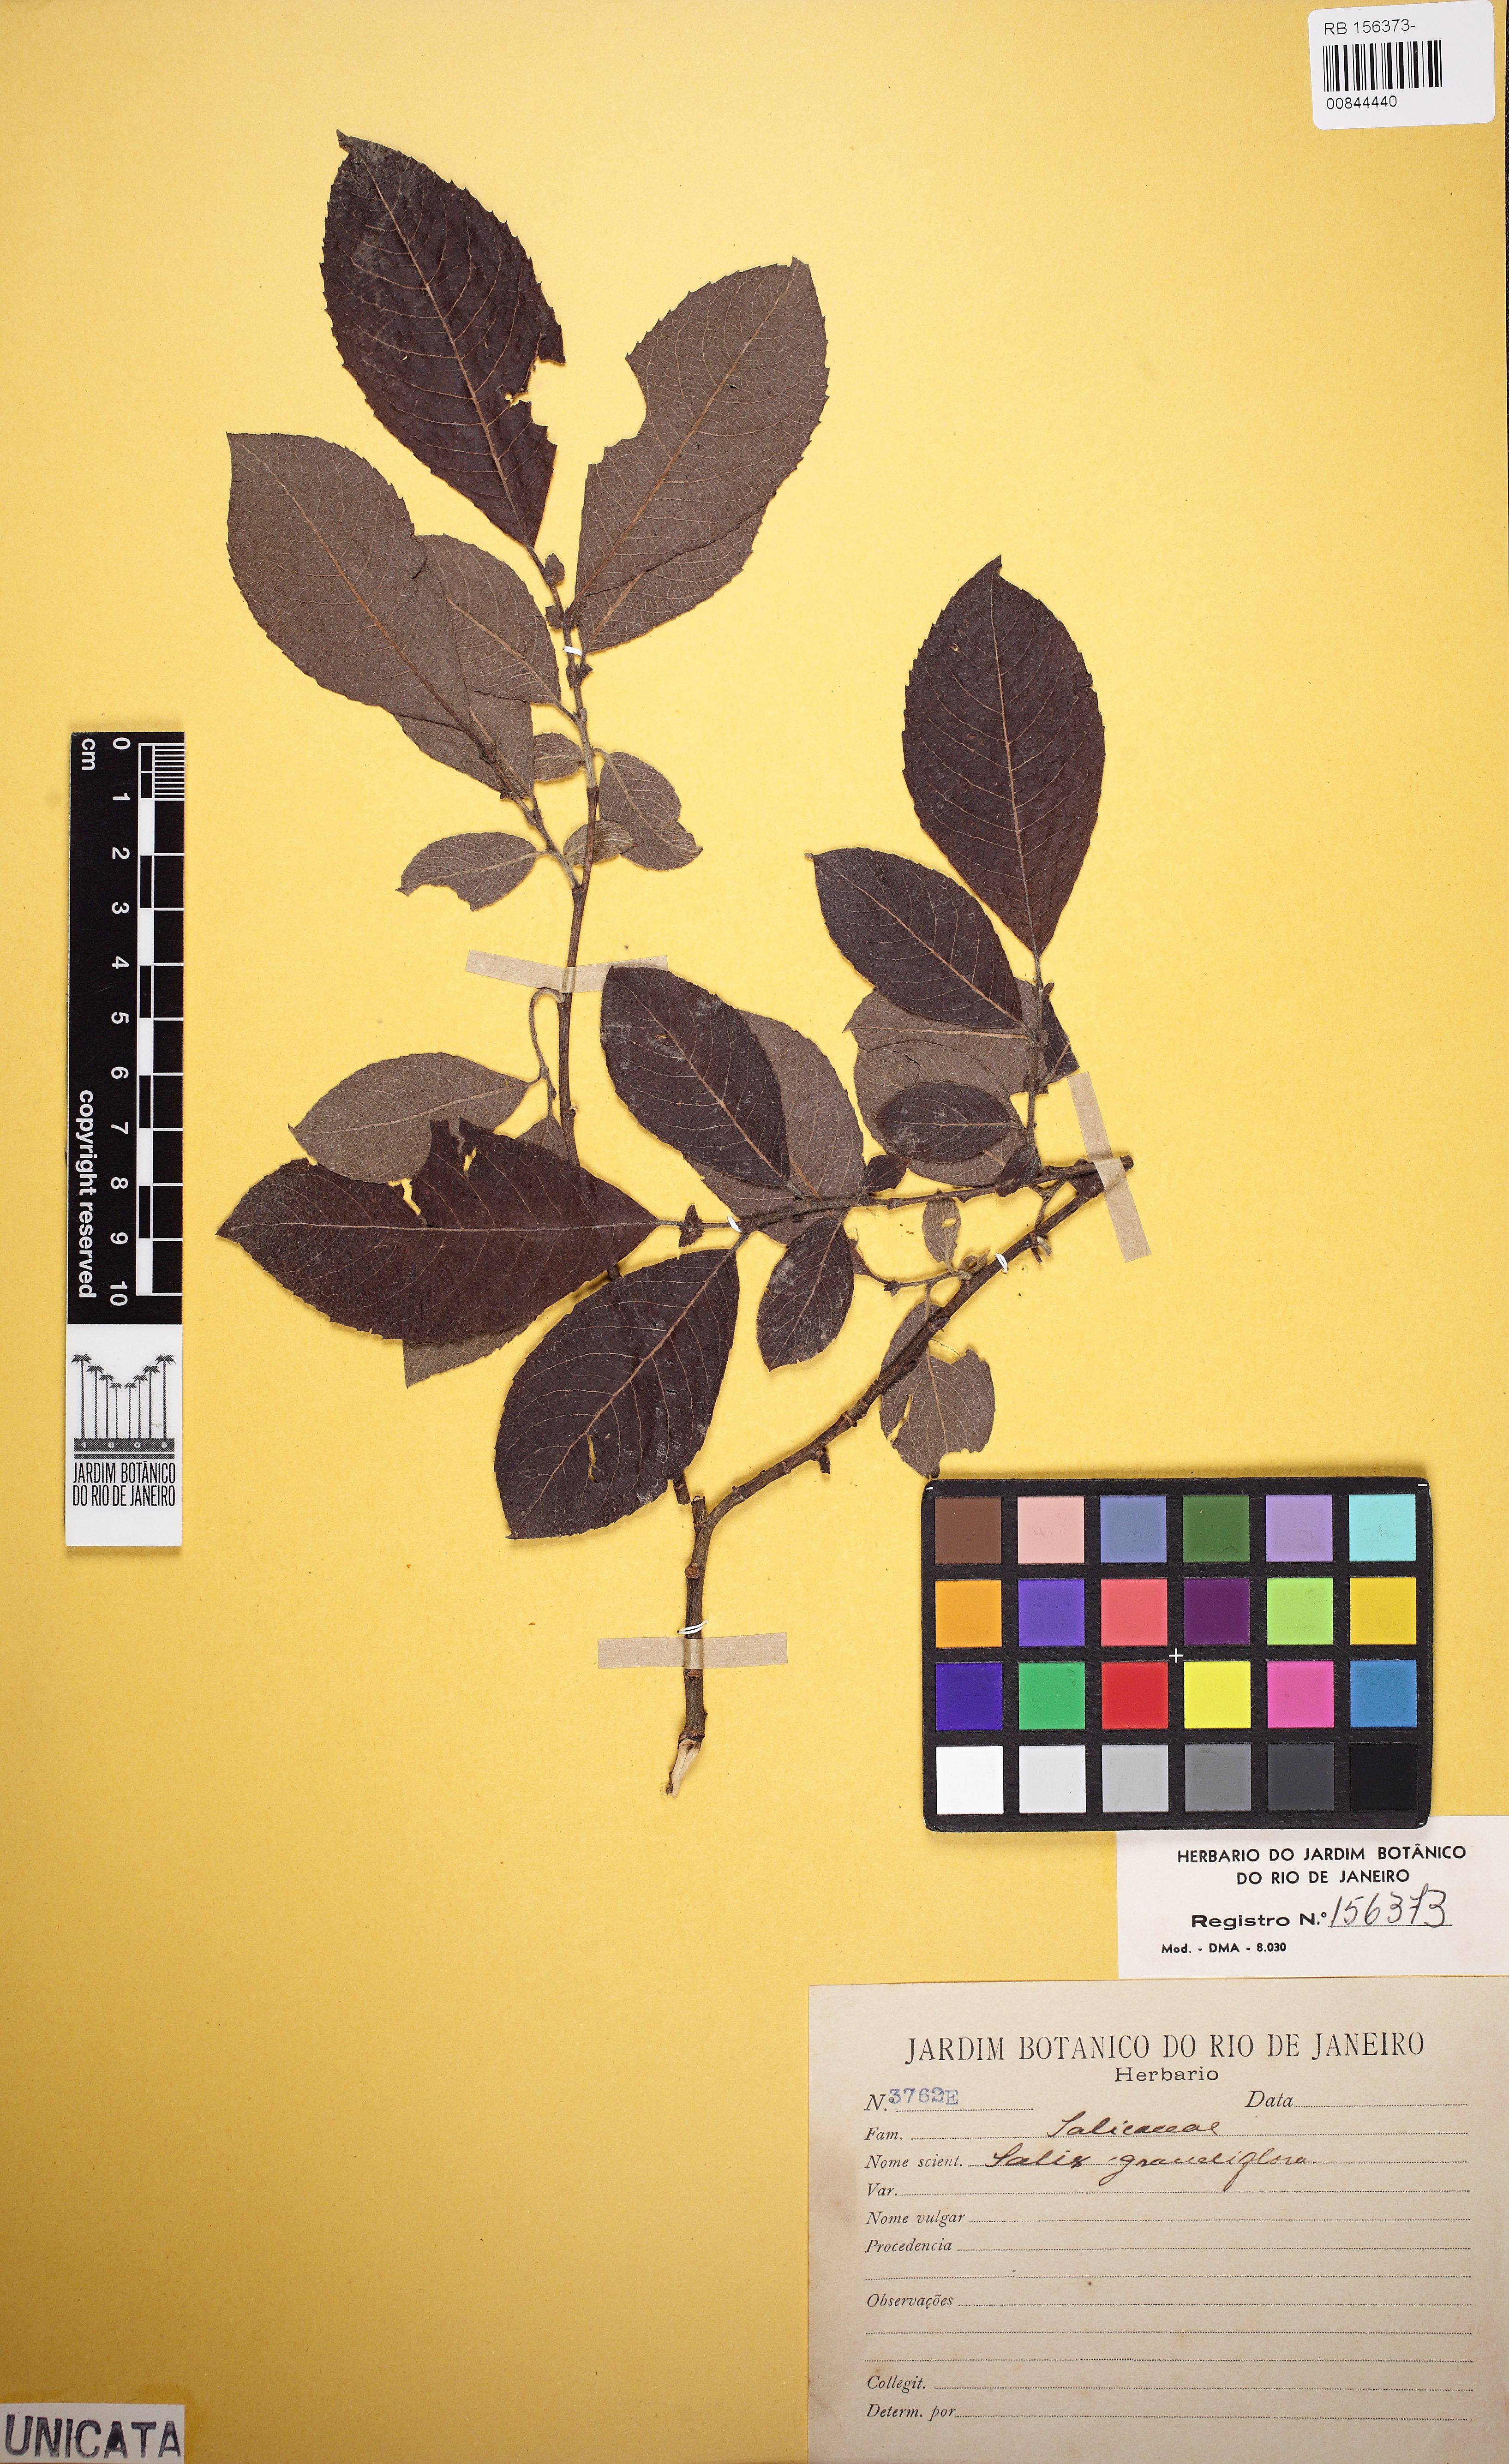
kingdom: Plantae
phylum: Tracheophyta
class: Magnoliopsida
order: Malpighiales
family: Salicaceae
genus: Salix
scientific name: Salix
